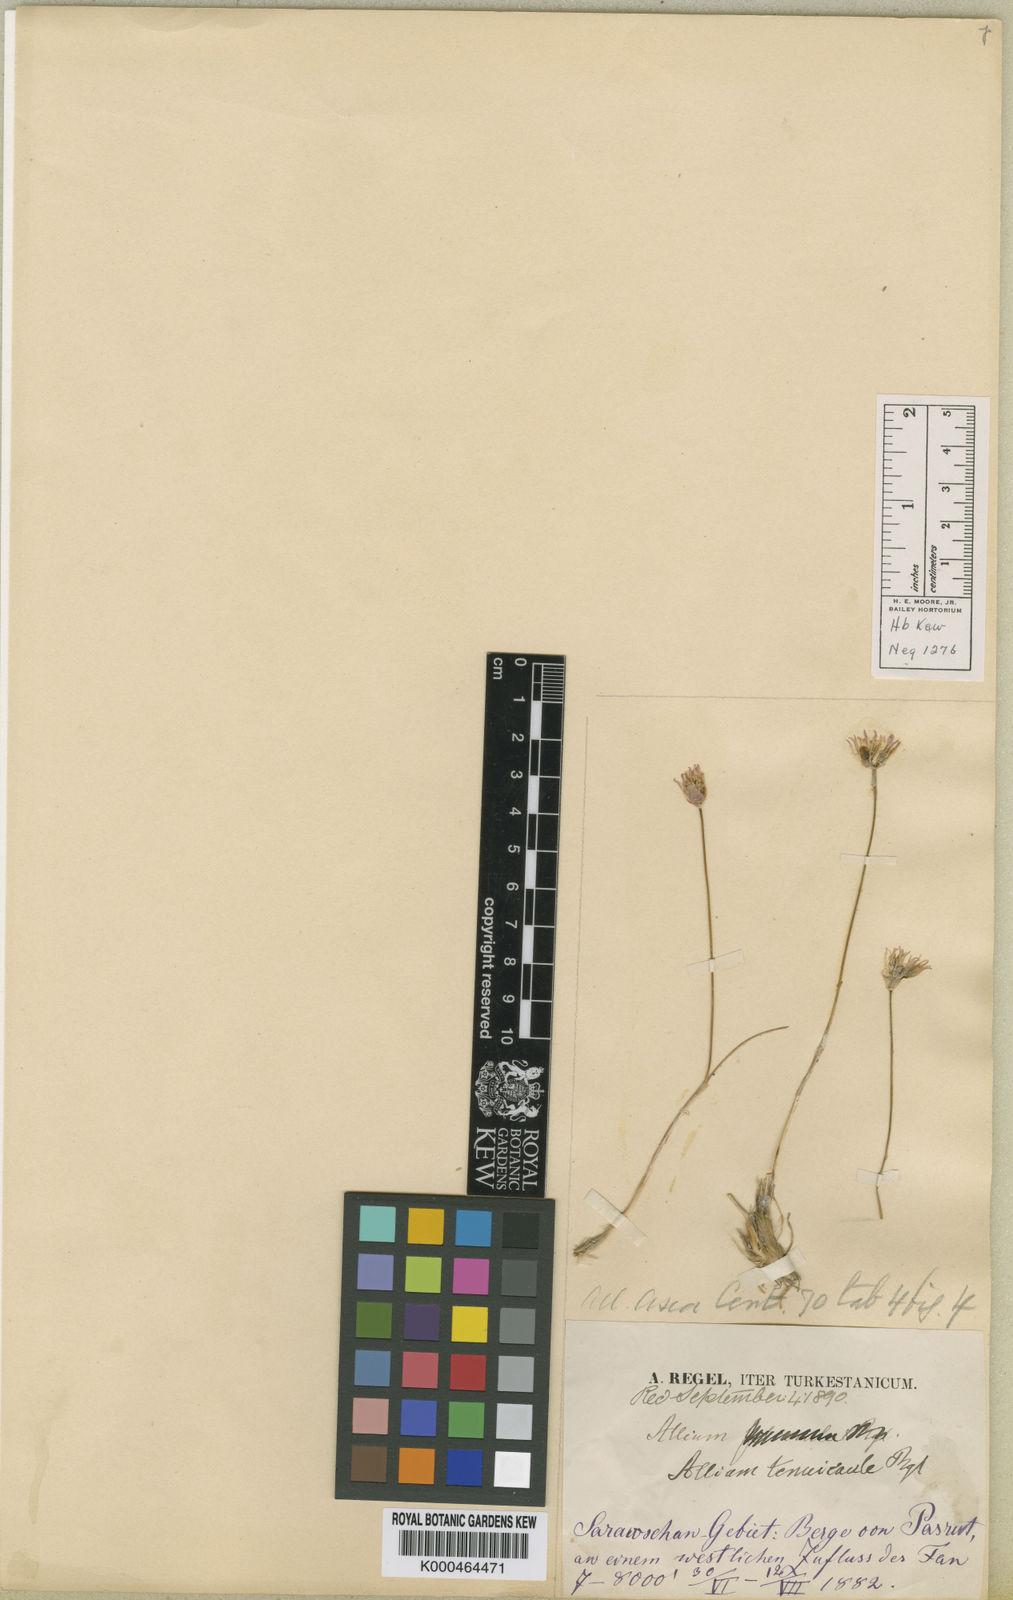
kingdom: Plantae
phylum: Tracheophyta
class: Liliopsida
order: Asparagales
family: Amaryllidaceae
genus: Allium
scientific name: Allium tenuicaule
